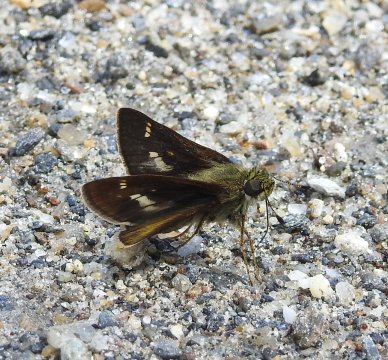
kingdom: Animalia
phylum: Arthropoda
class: Insecta
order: Lepidoptera
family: Hesperiidae
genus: Vernia
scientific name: Vernia verna
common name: Little Glassywing
